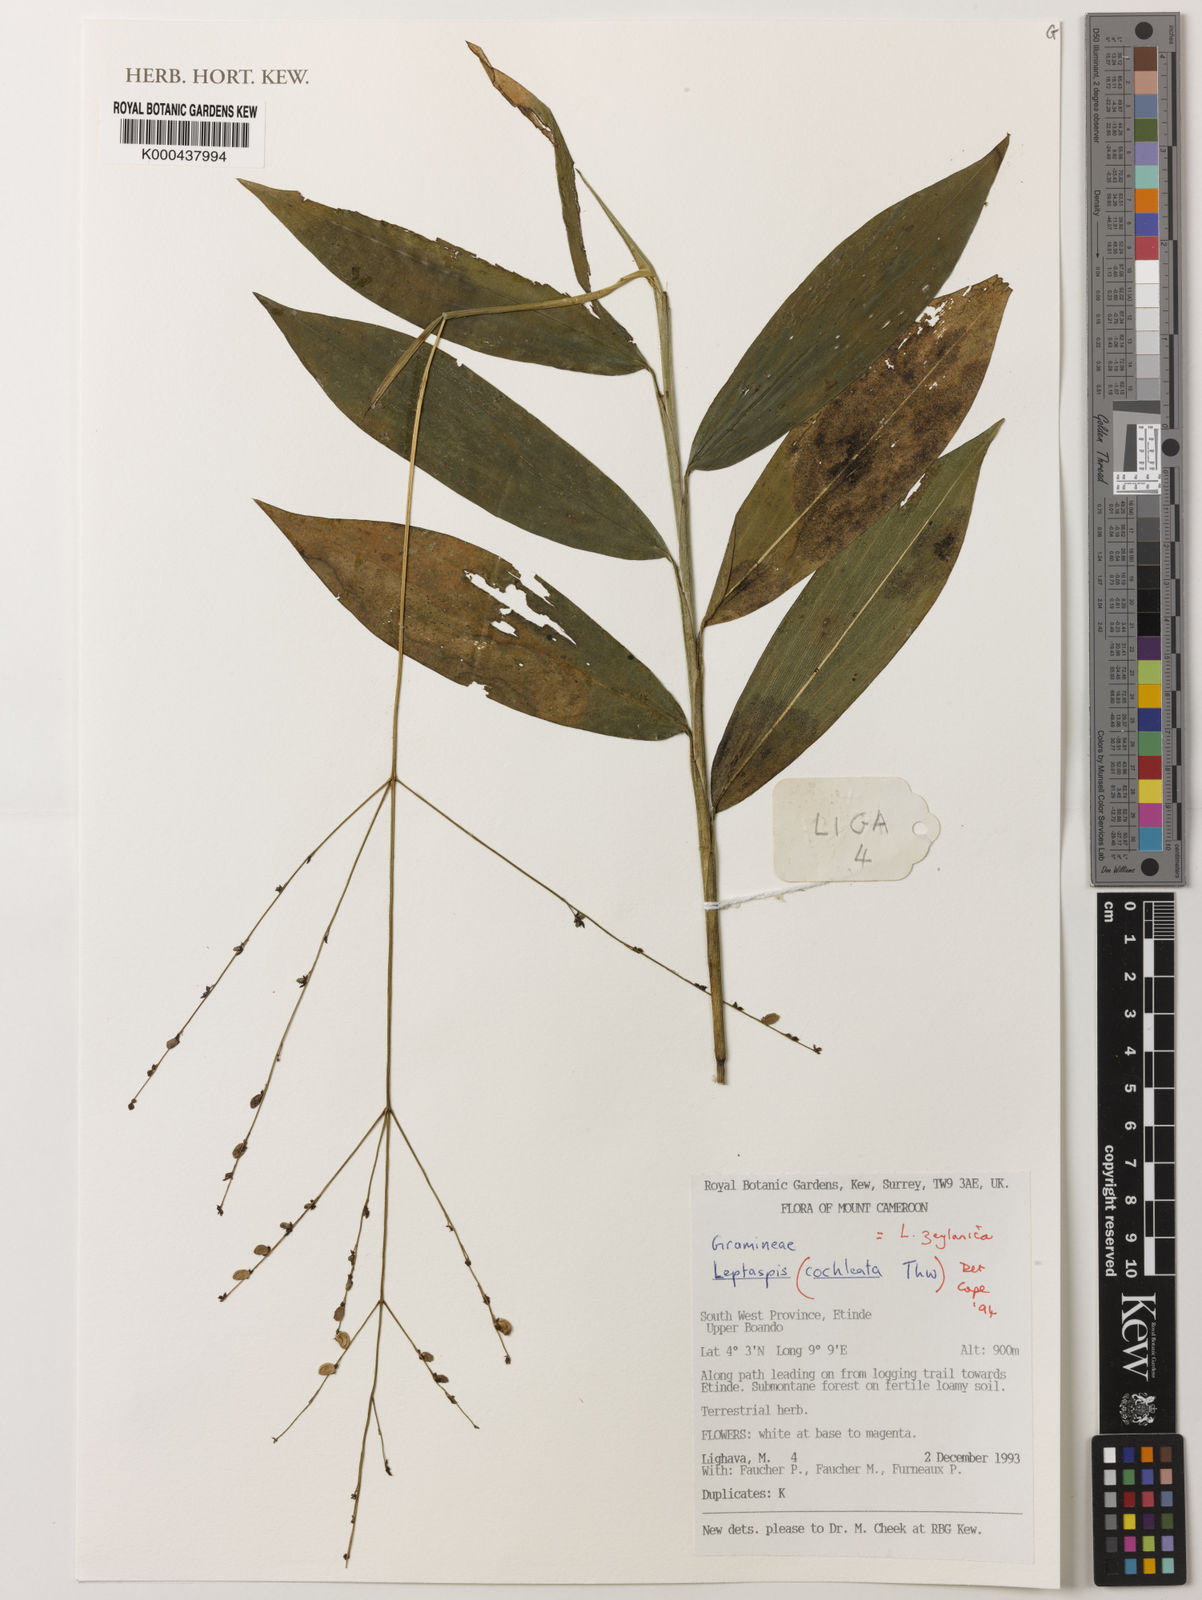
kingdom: Plantae
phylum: Tracheophyta
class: Liliopsida
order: Poales
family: Poaceae
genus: Leptaspis
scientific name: Leptaspis zeylanica
